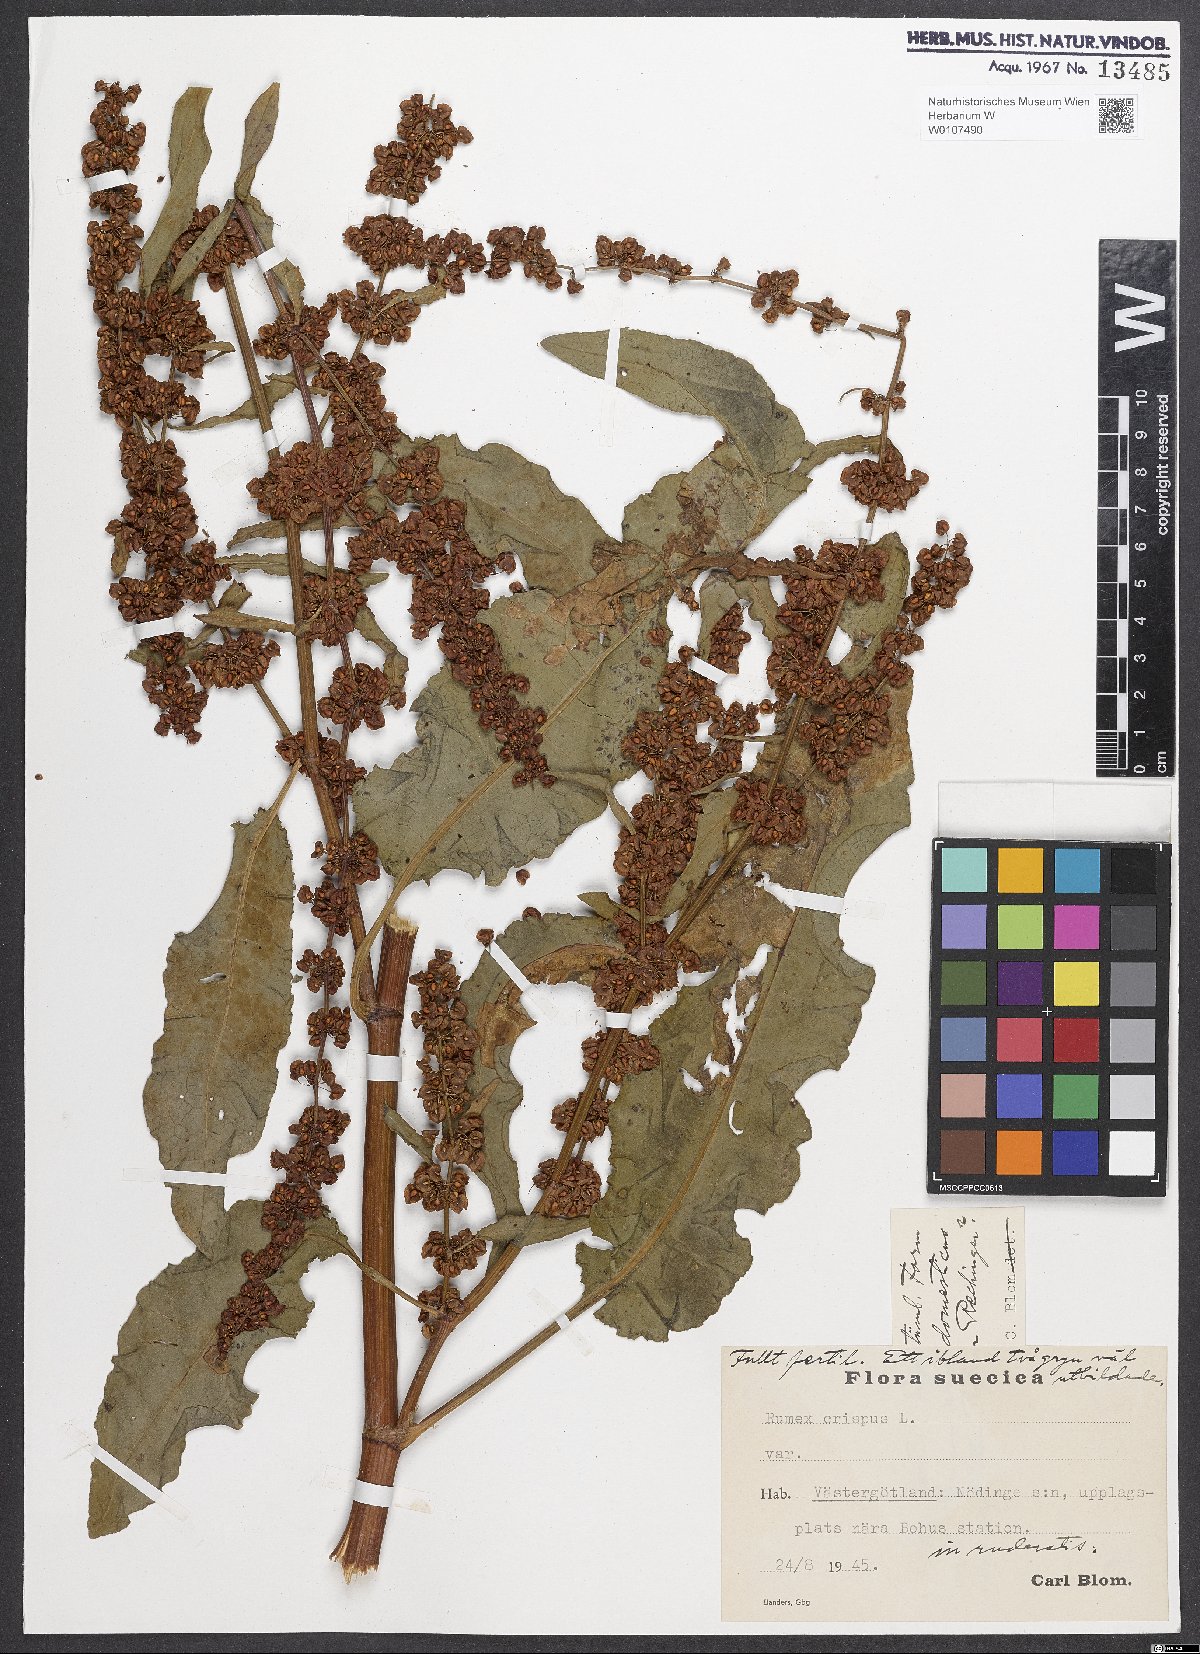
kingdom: Plantae
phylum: Tracheophyta
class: Magnoliopsida
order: Caryophyllales
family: Polygonaceae
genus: Rumex
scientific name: Rumex crispus
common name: Curled dock
